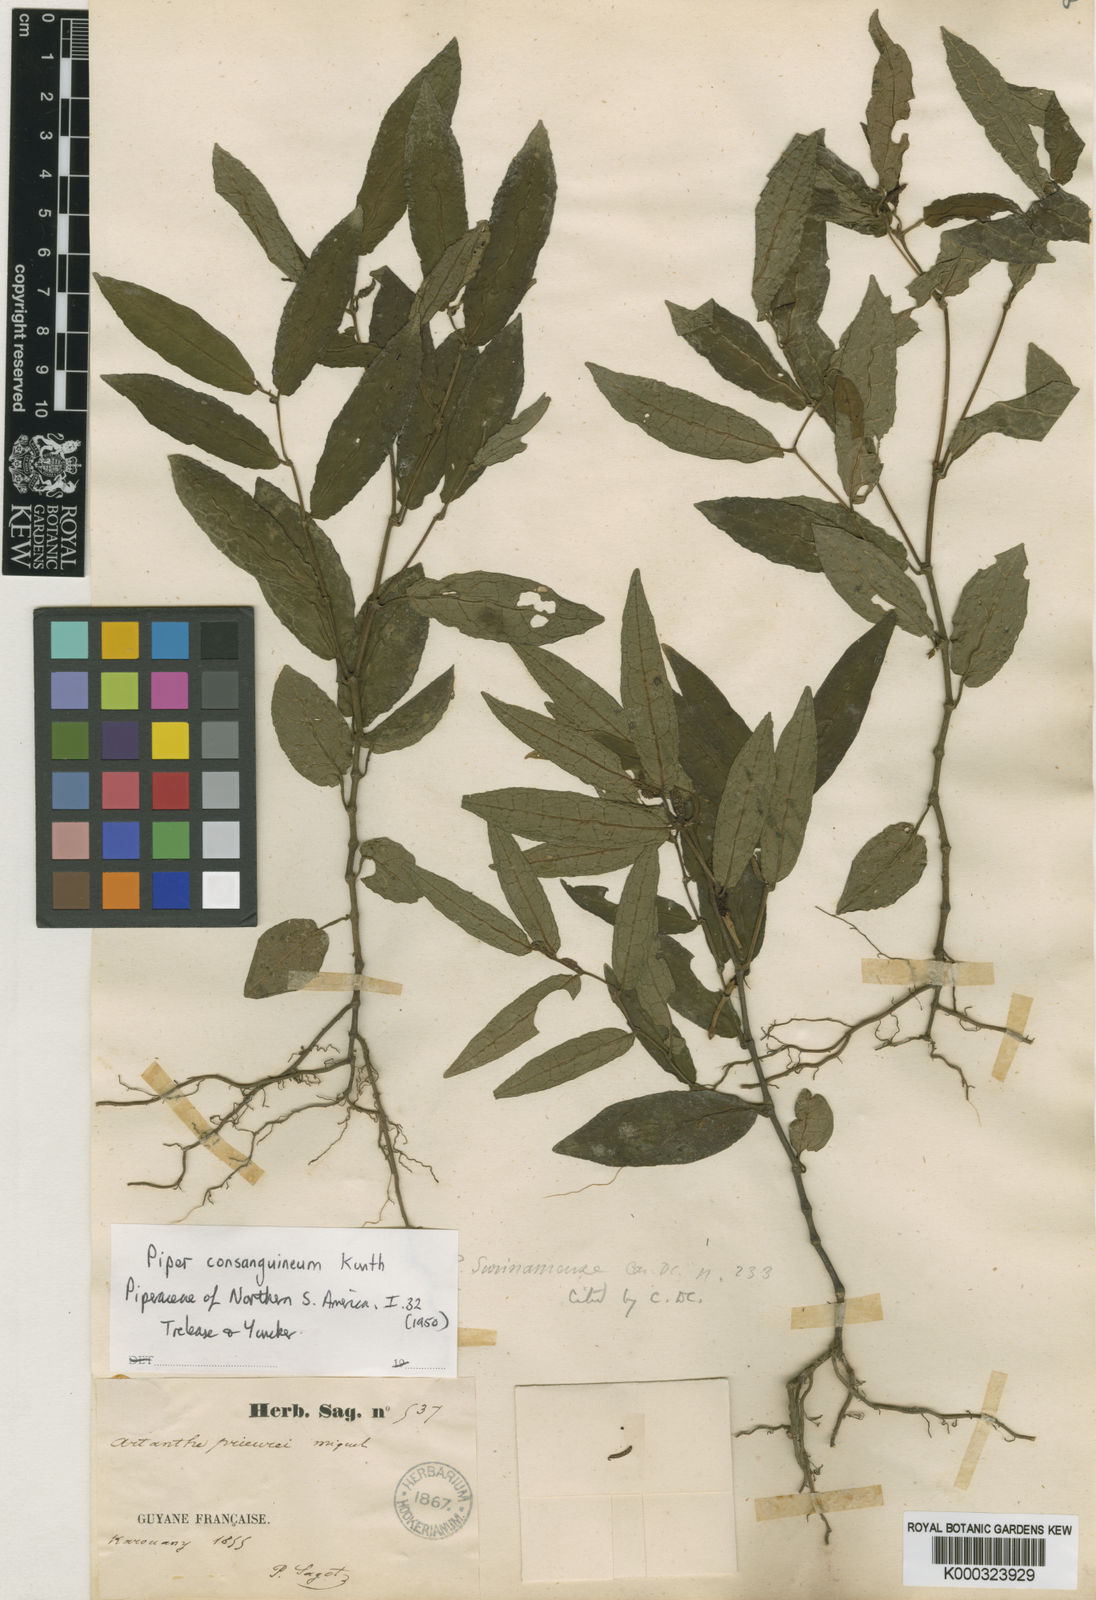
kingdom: Plantae
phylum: Tracheophyta
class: Magnoliopsida
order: Piperales
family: Piperaceae
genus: Piper
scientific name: Piper consanguineum
